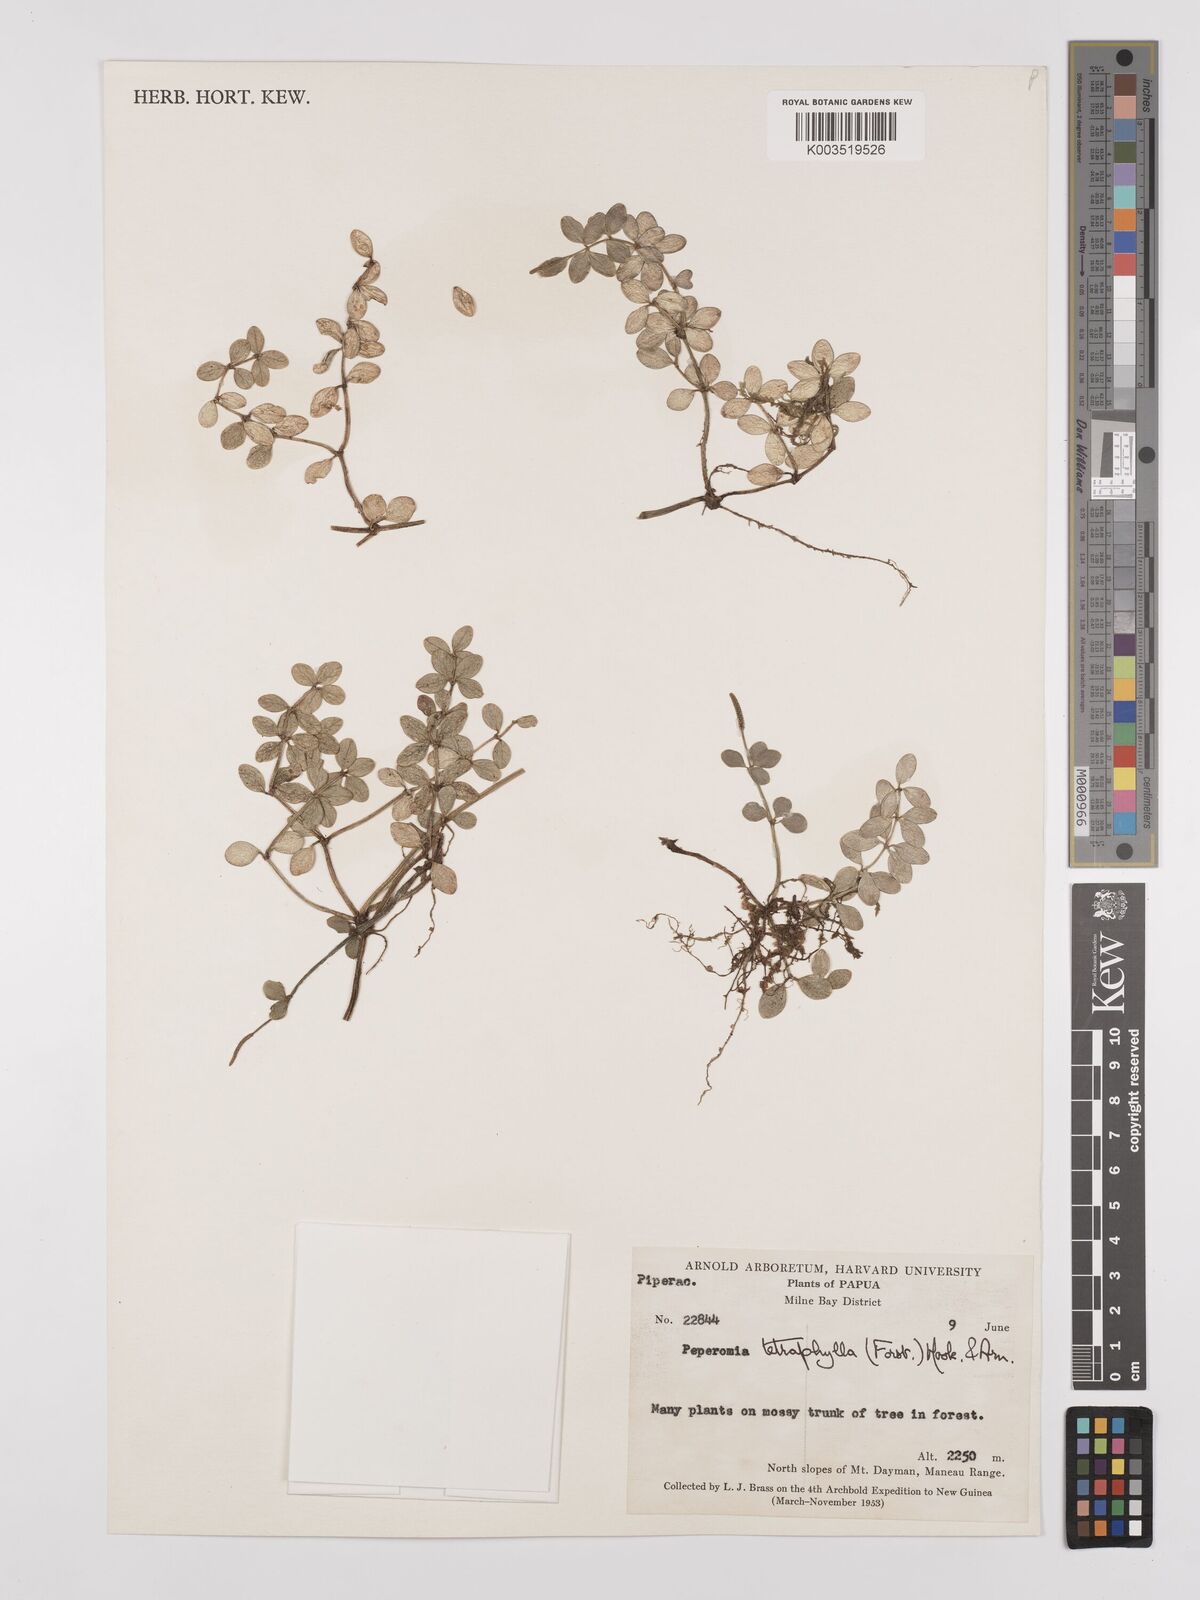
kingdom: Plantae
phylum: Tracheophyta
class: Magnoliopsida
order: Piperales
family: Piperaceae
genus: Peperomia
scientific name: Peperomia tetraphylla
